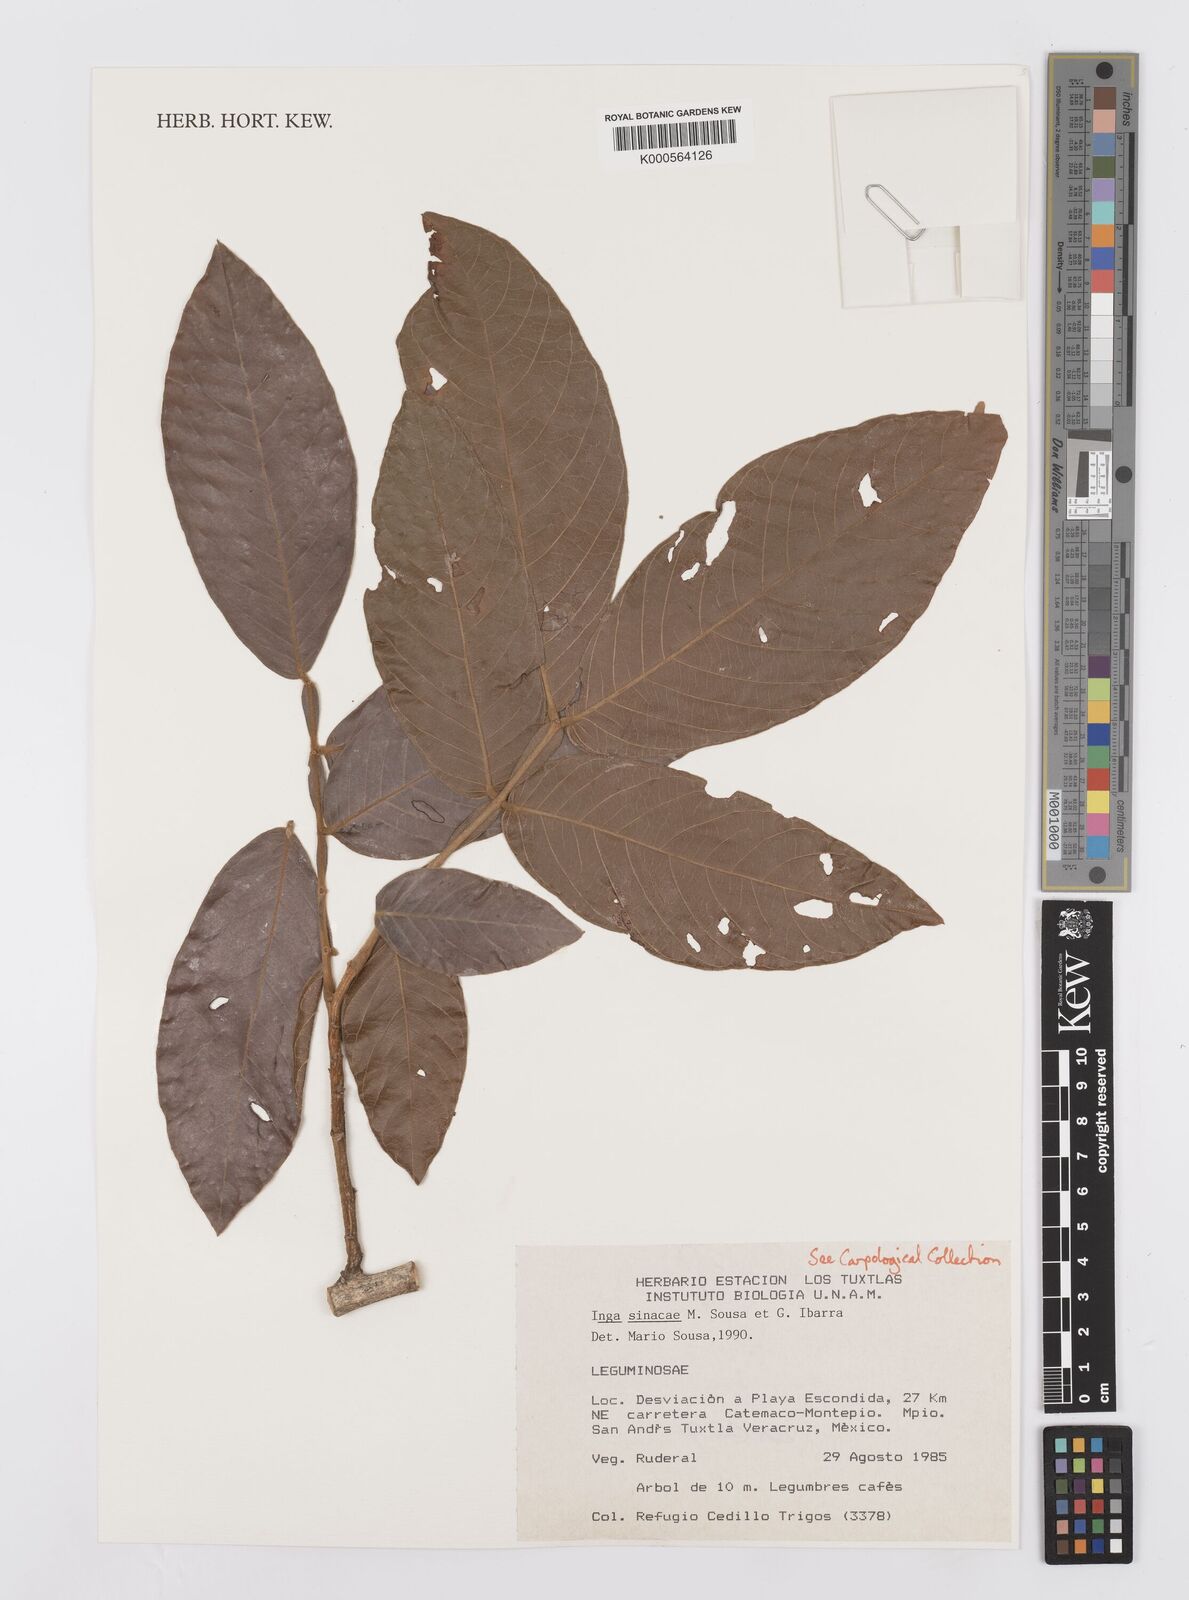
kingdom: Plantae
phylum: Tracheophyta
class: Magnoliopsida
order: Fabales
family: Fabaceae
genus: Inga
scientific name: Inga sinacae
